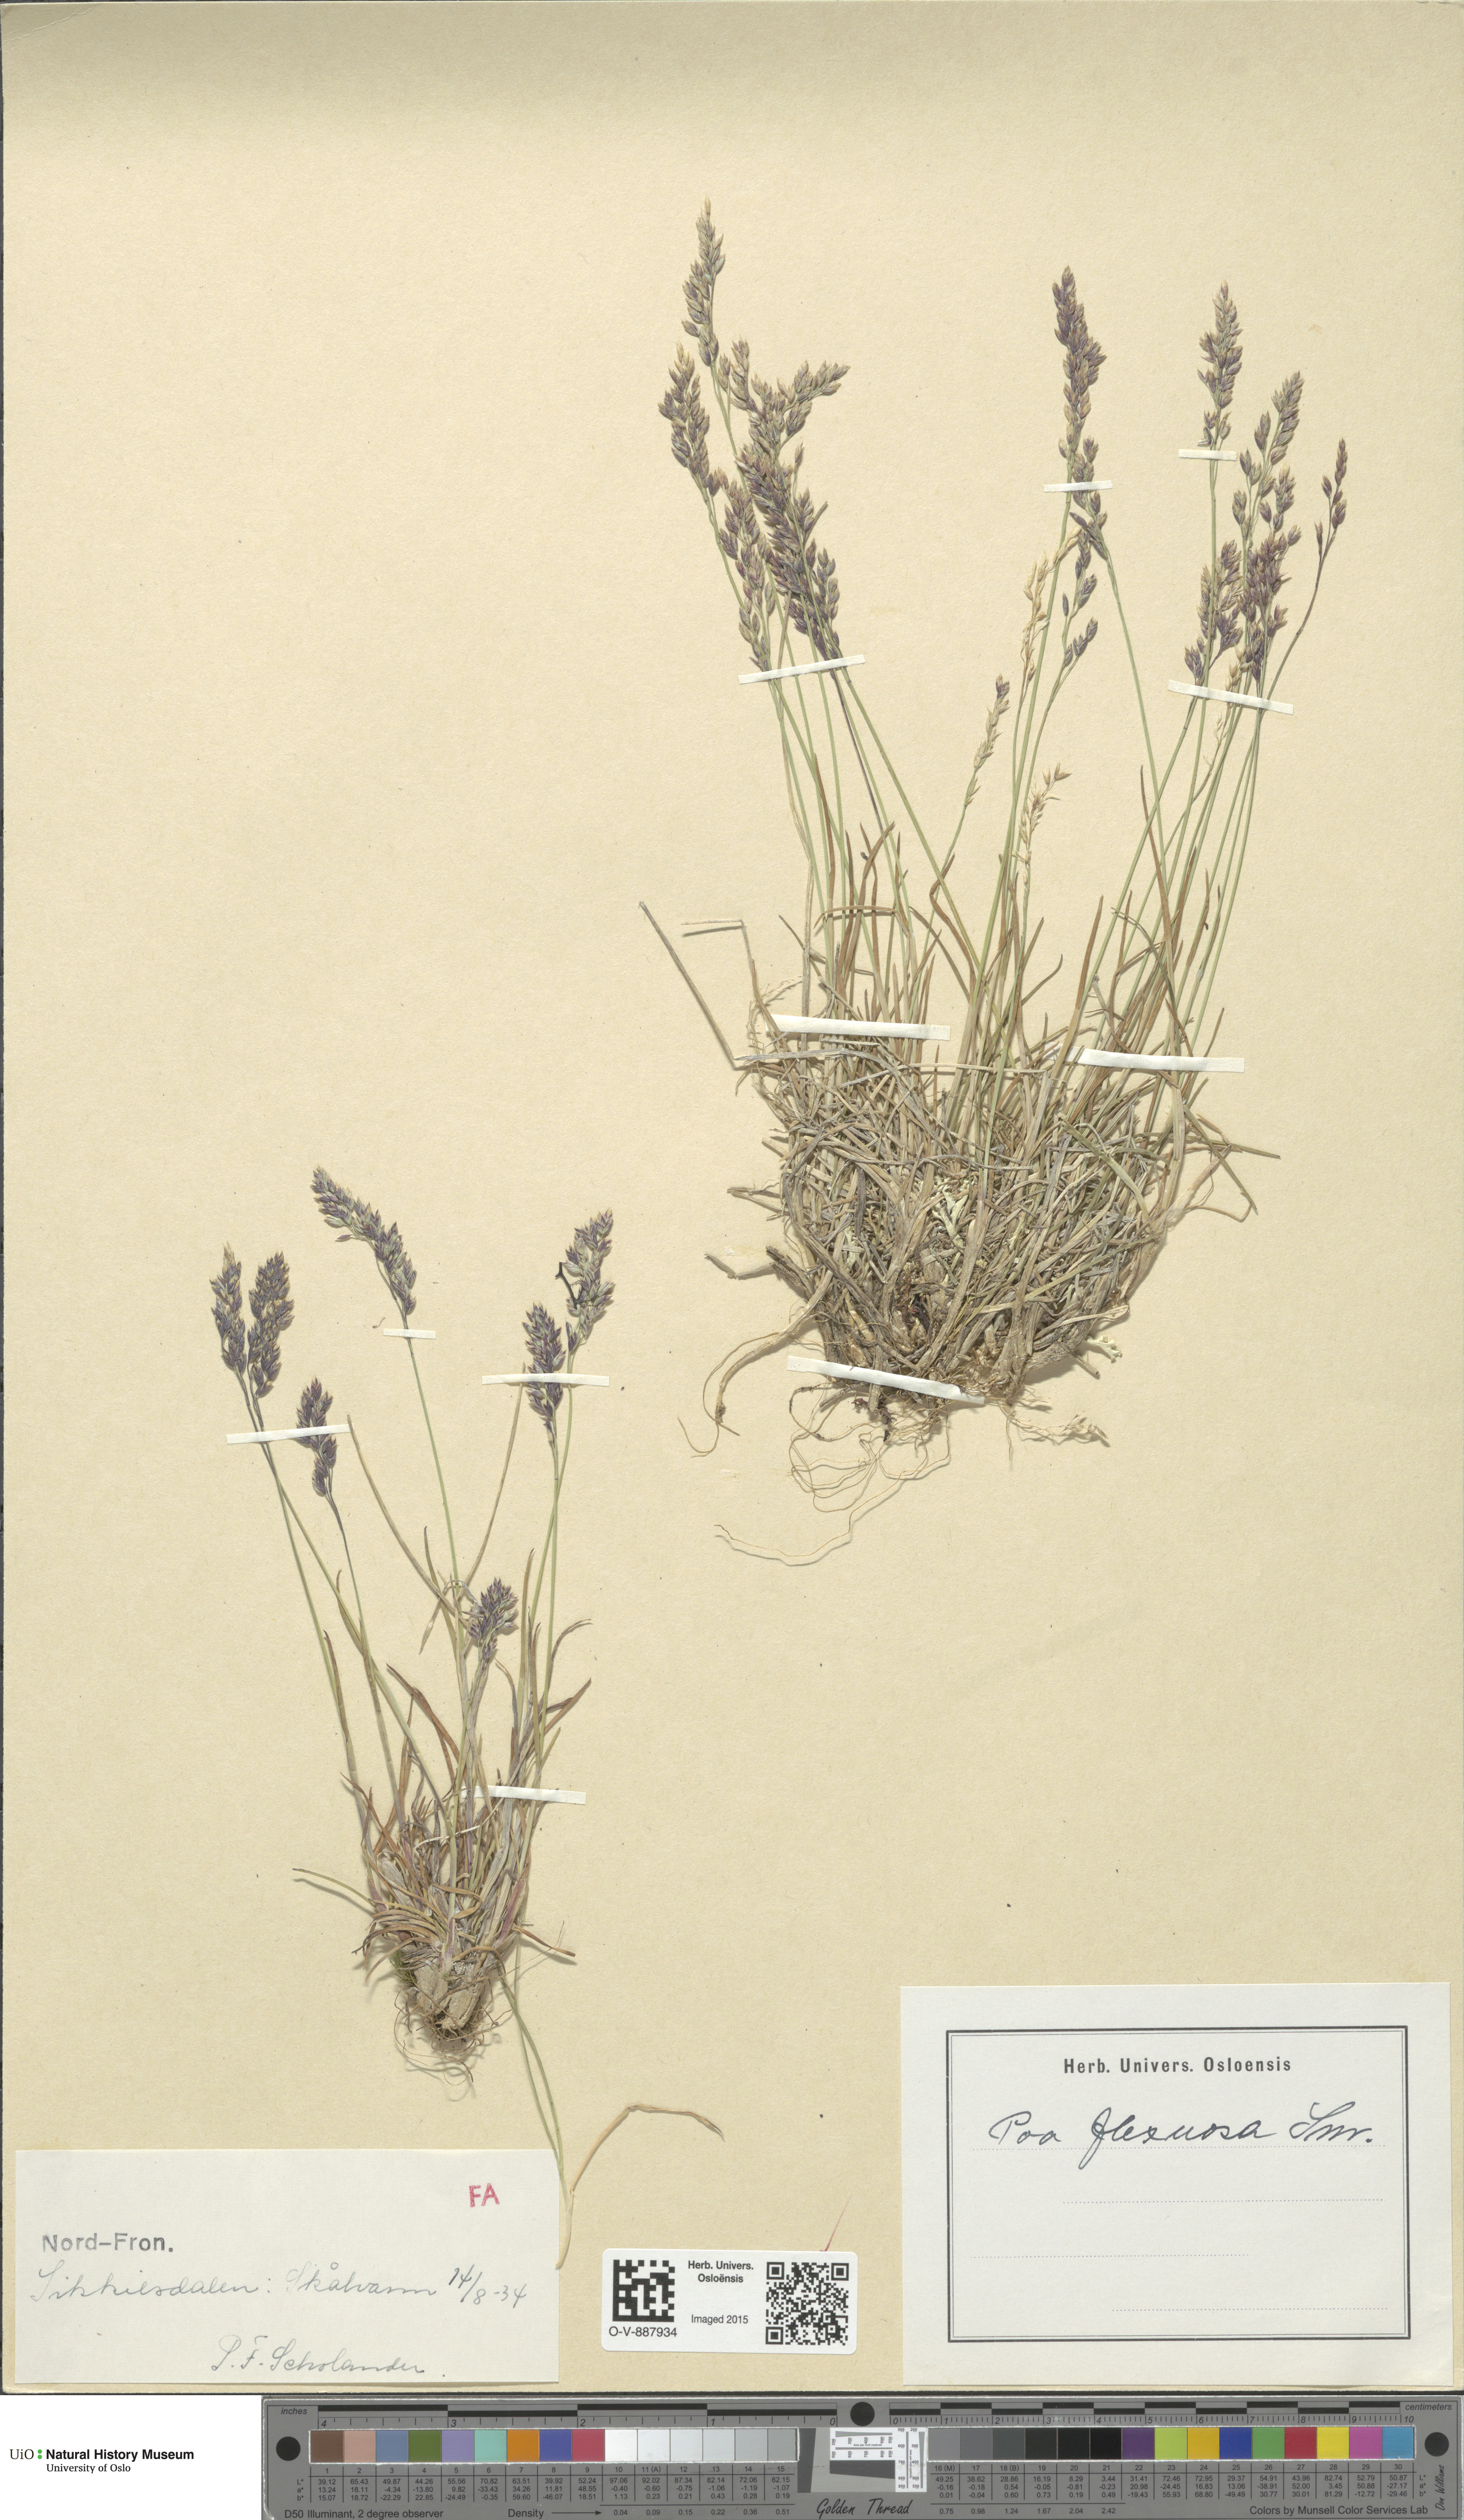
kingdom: Plantae
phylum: Tracheophyta
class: Liliopsida
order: Poales
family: Poaceae
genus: Poa
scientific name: Poa flexuosa
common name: Wavy meadow-grass
